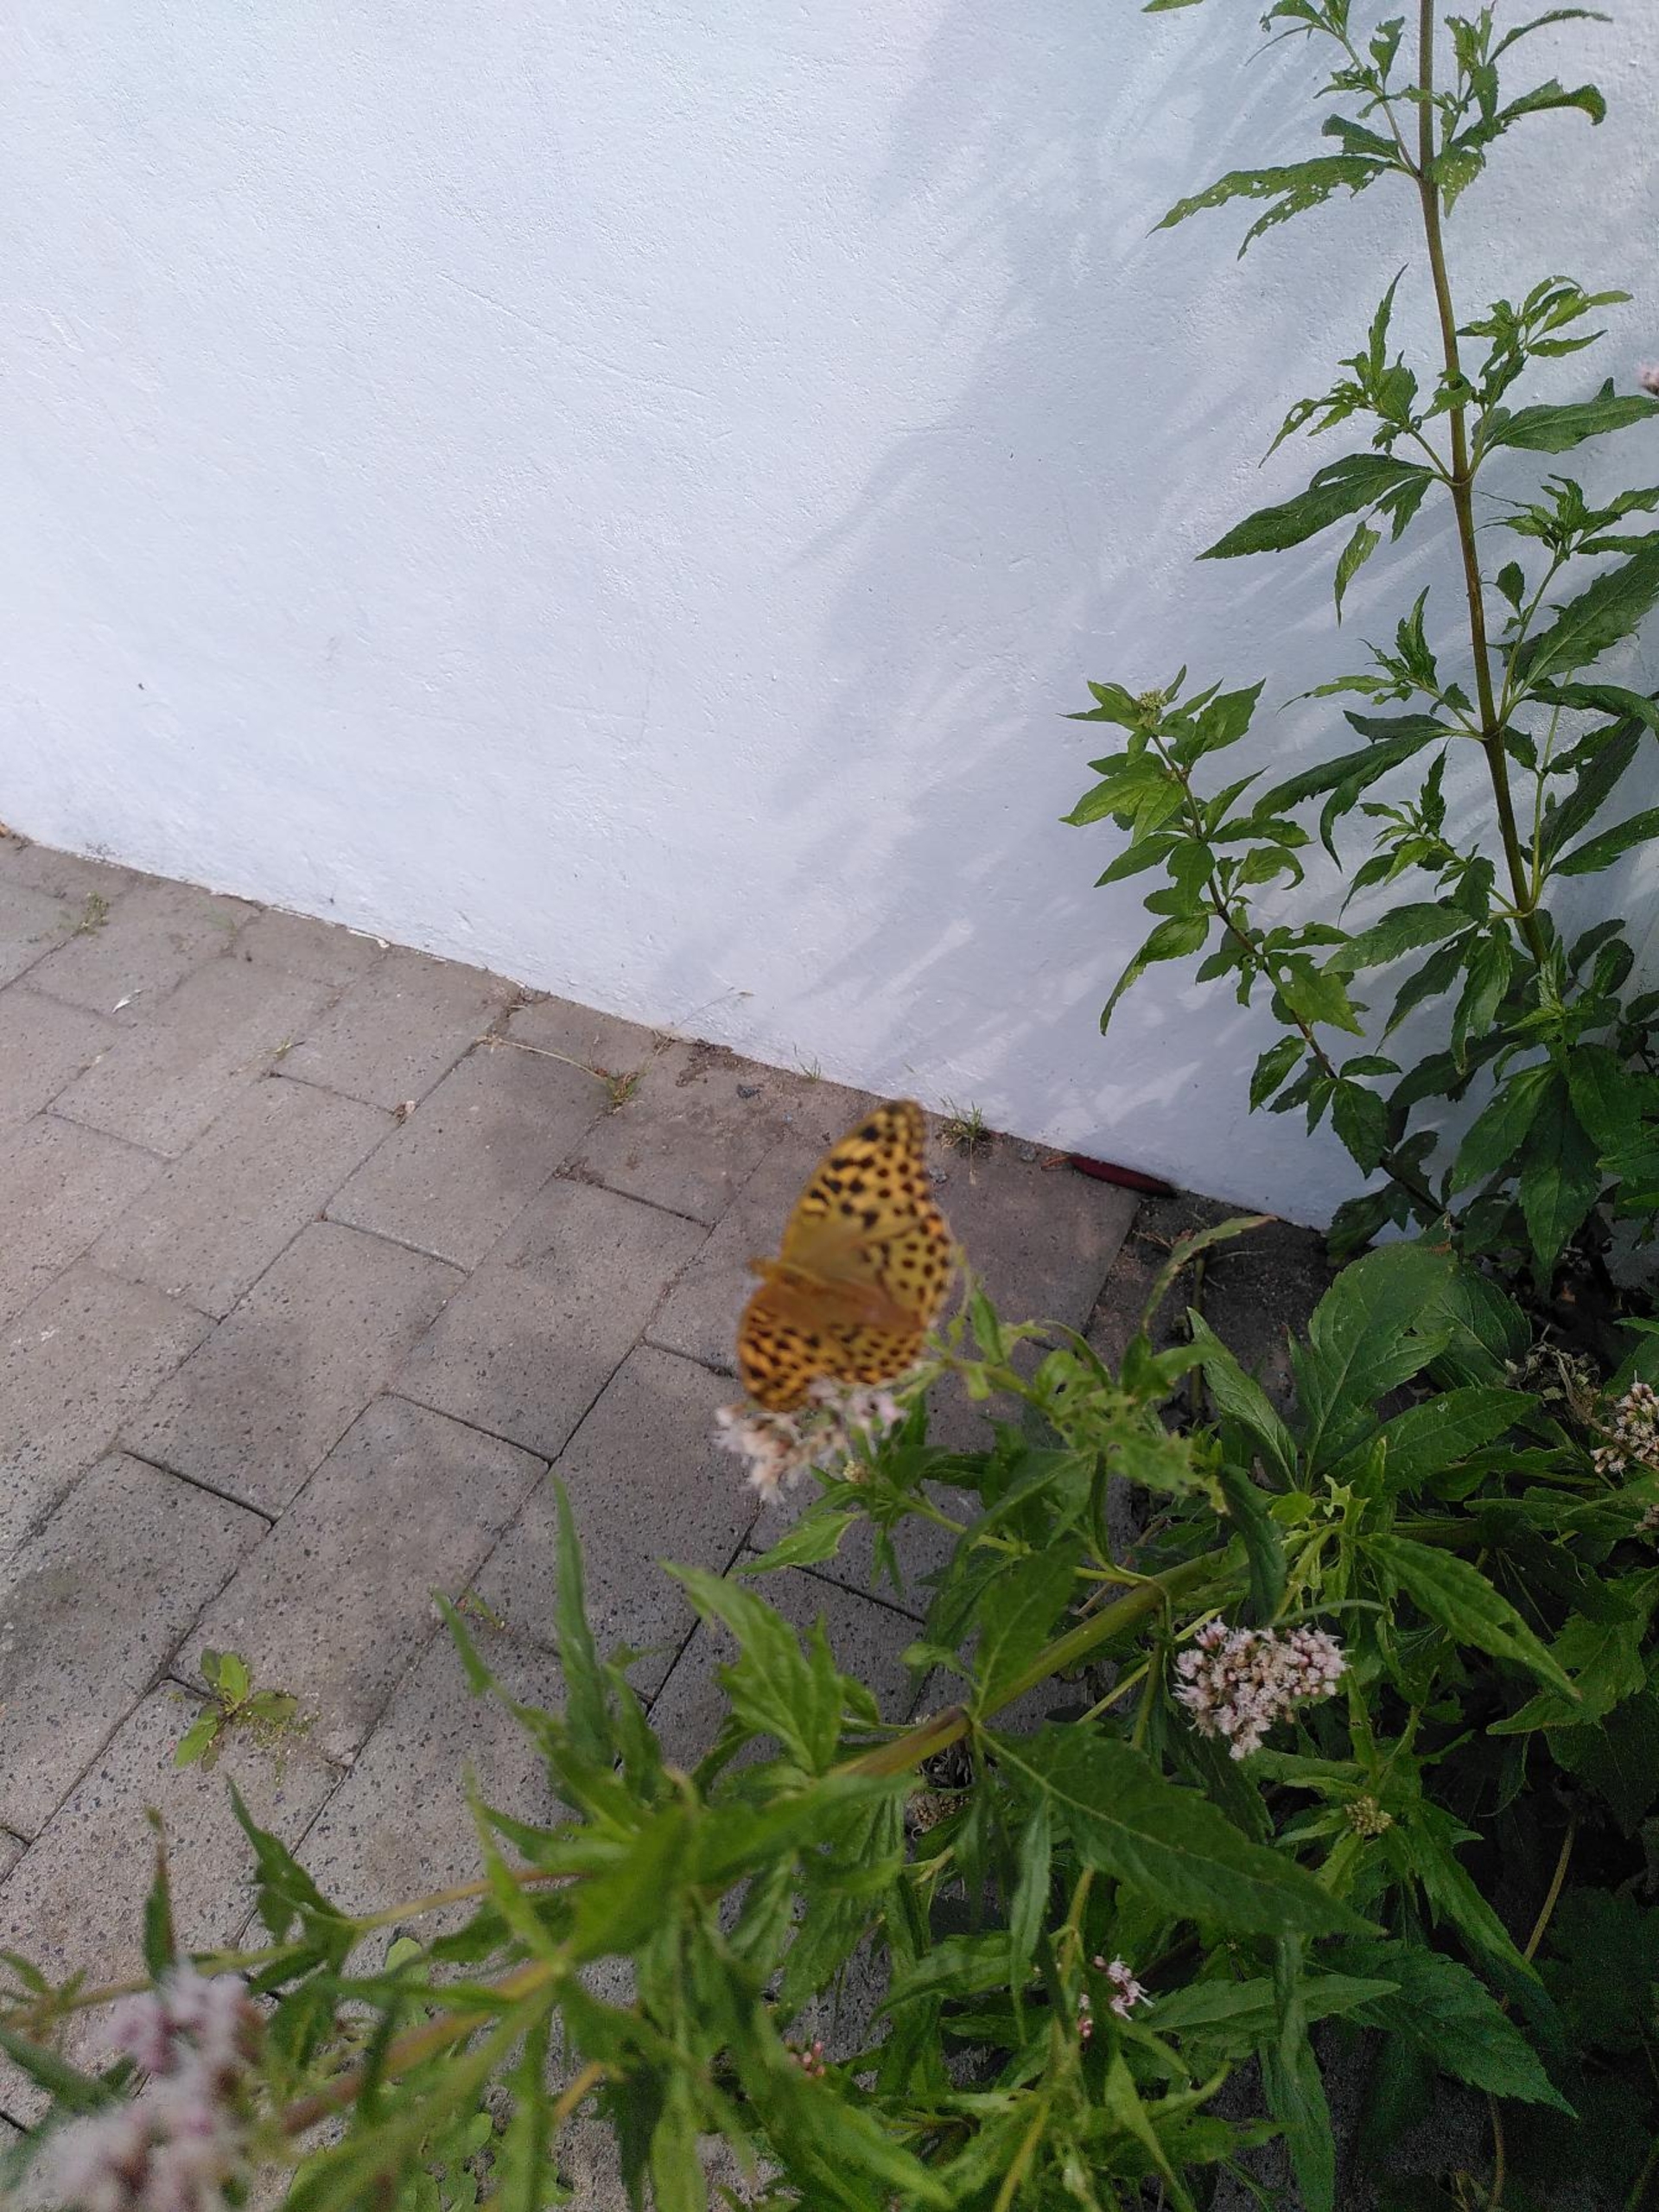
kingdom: Animalia
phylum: Arthropoda
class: Insecta
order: Lepidoptera
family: Nymphalidae
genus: Argynnis
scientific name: Argynnis paphia
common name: Kejserkåbe
